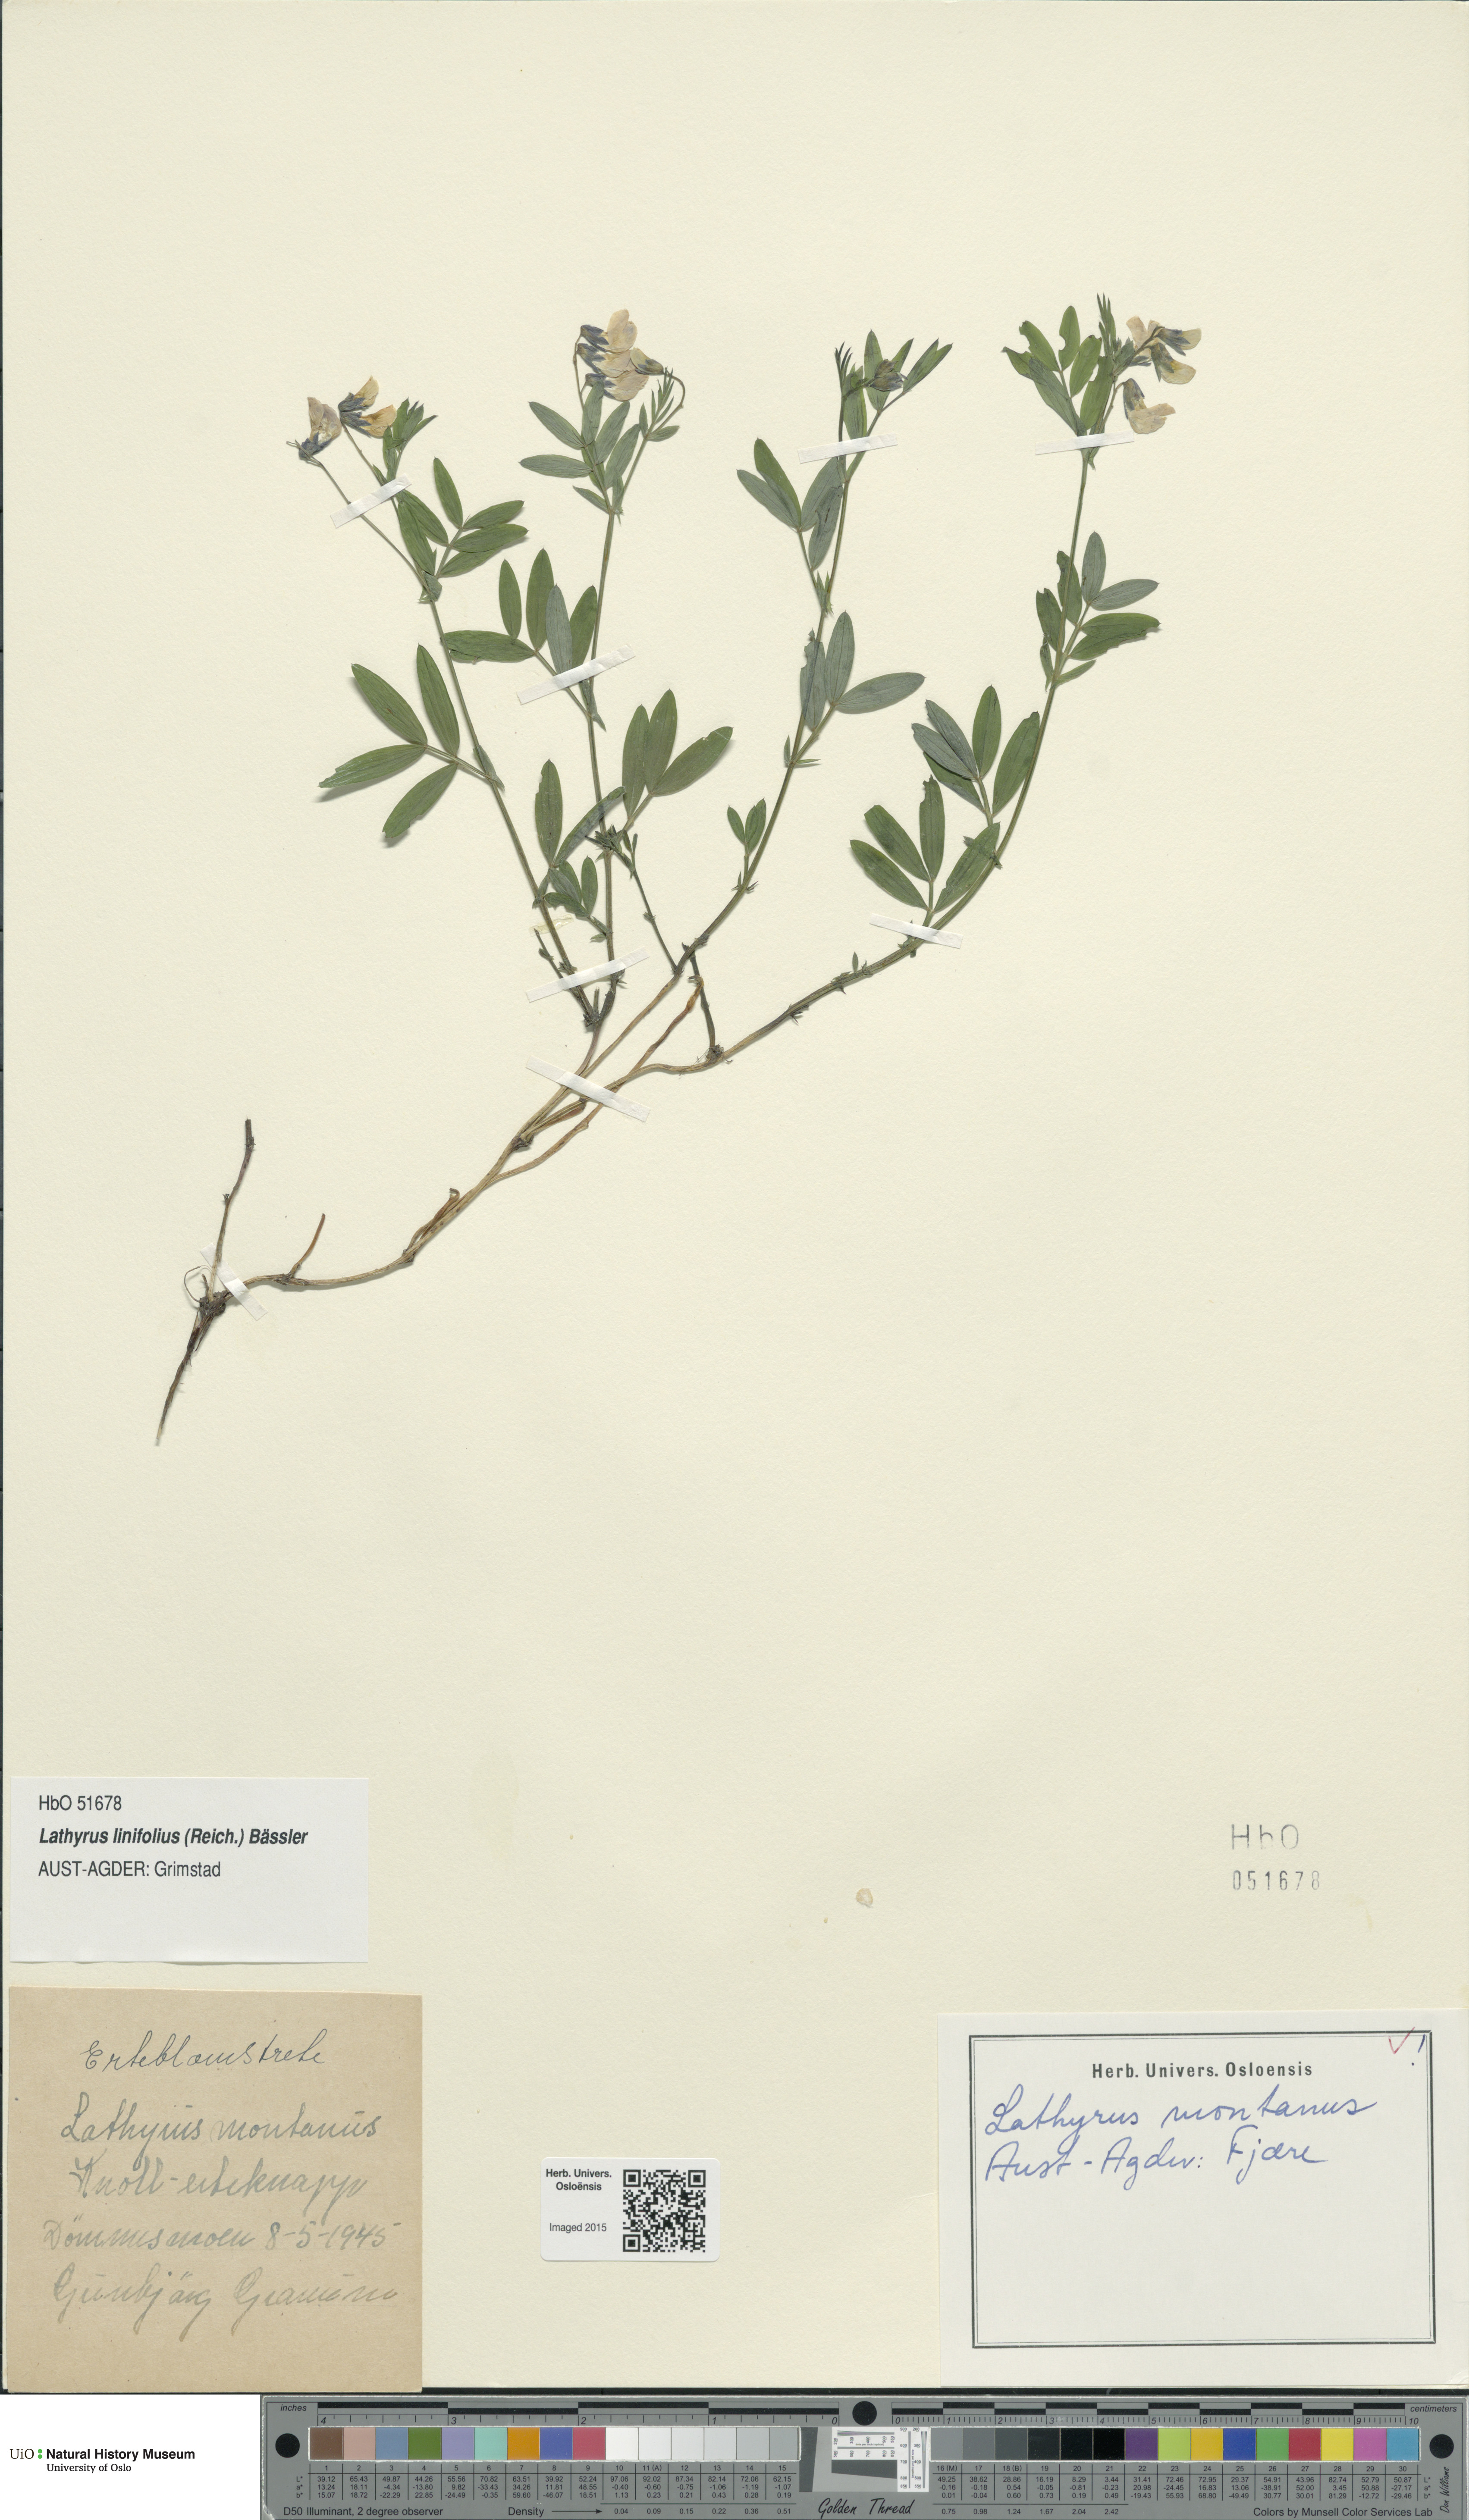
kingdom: Plantae
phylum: Tracheophyta
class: Magnoliopsida
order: Fabales
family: Fabaceae
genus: Lathyrus
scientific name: Lathyrus linifolius
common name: Bitter-vetch
